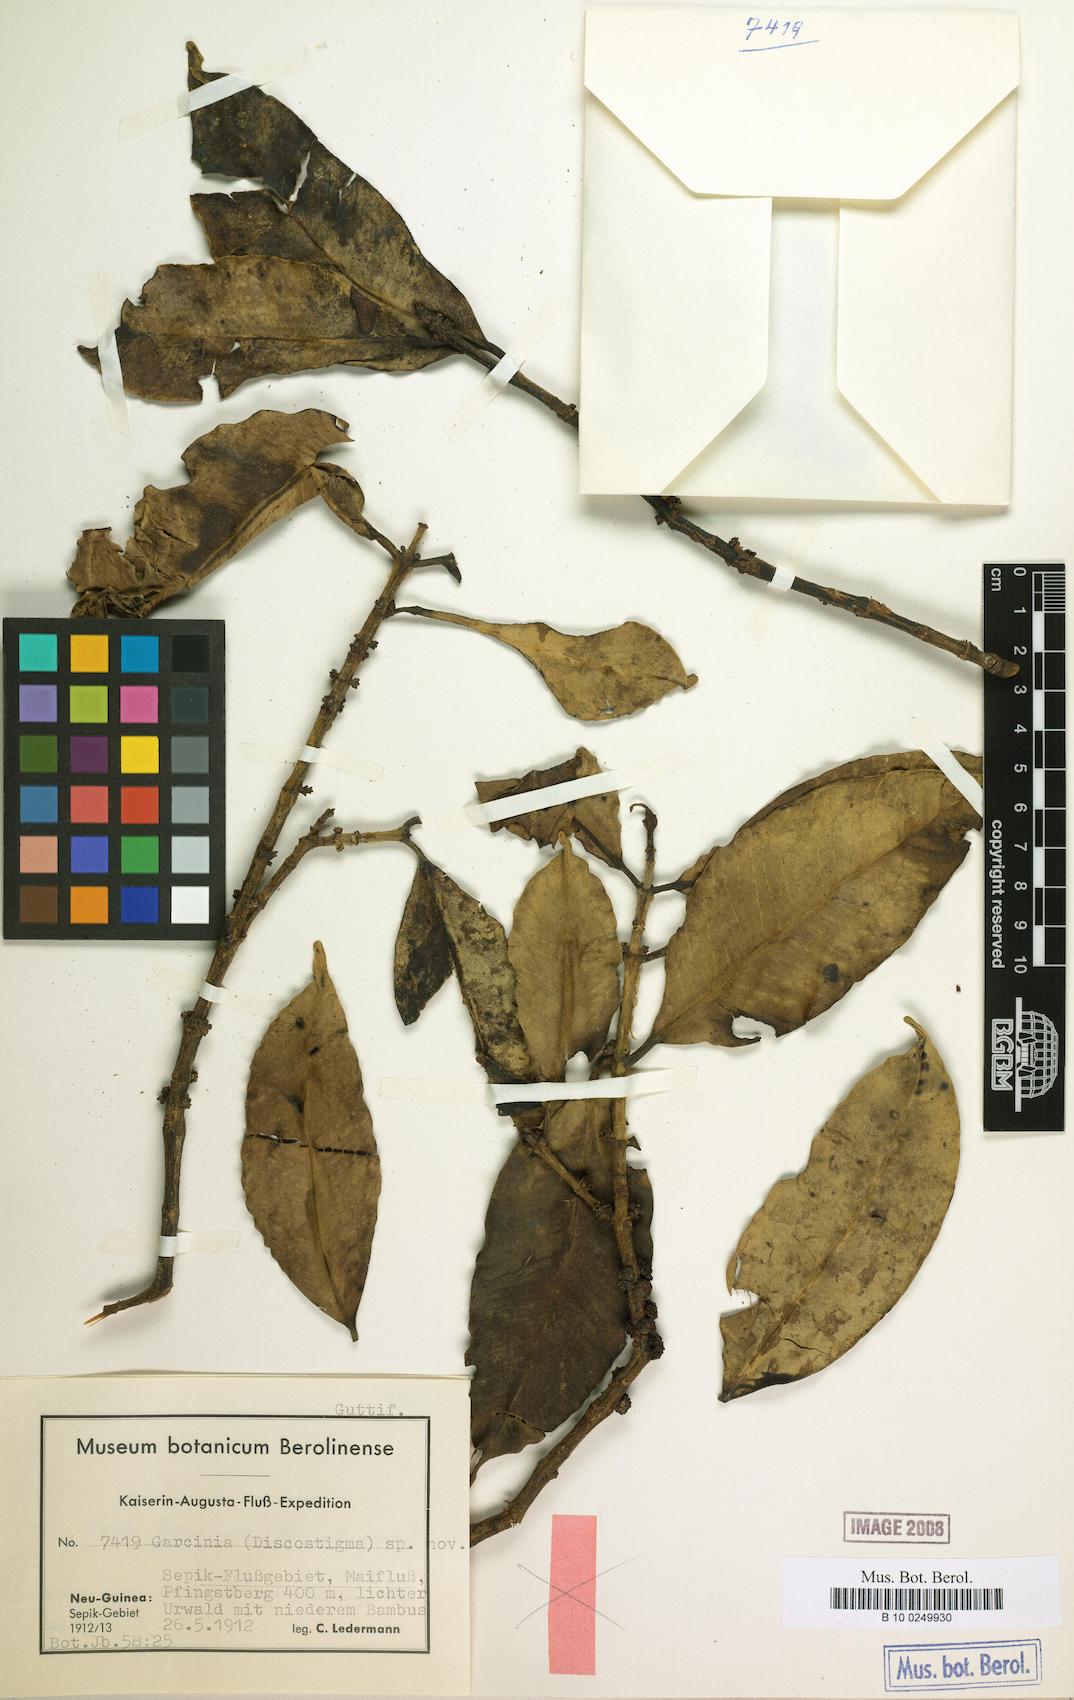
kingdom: Plantae
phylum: Tracheophyta
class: Magnoliopsida
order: Malpighiales
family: Clusiaceae
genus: Garcinia
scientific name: Garcinia
